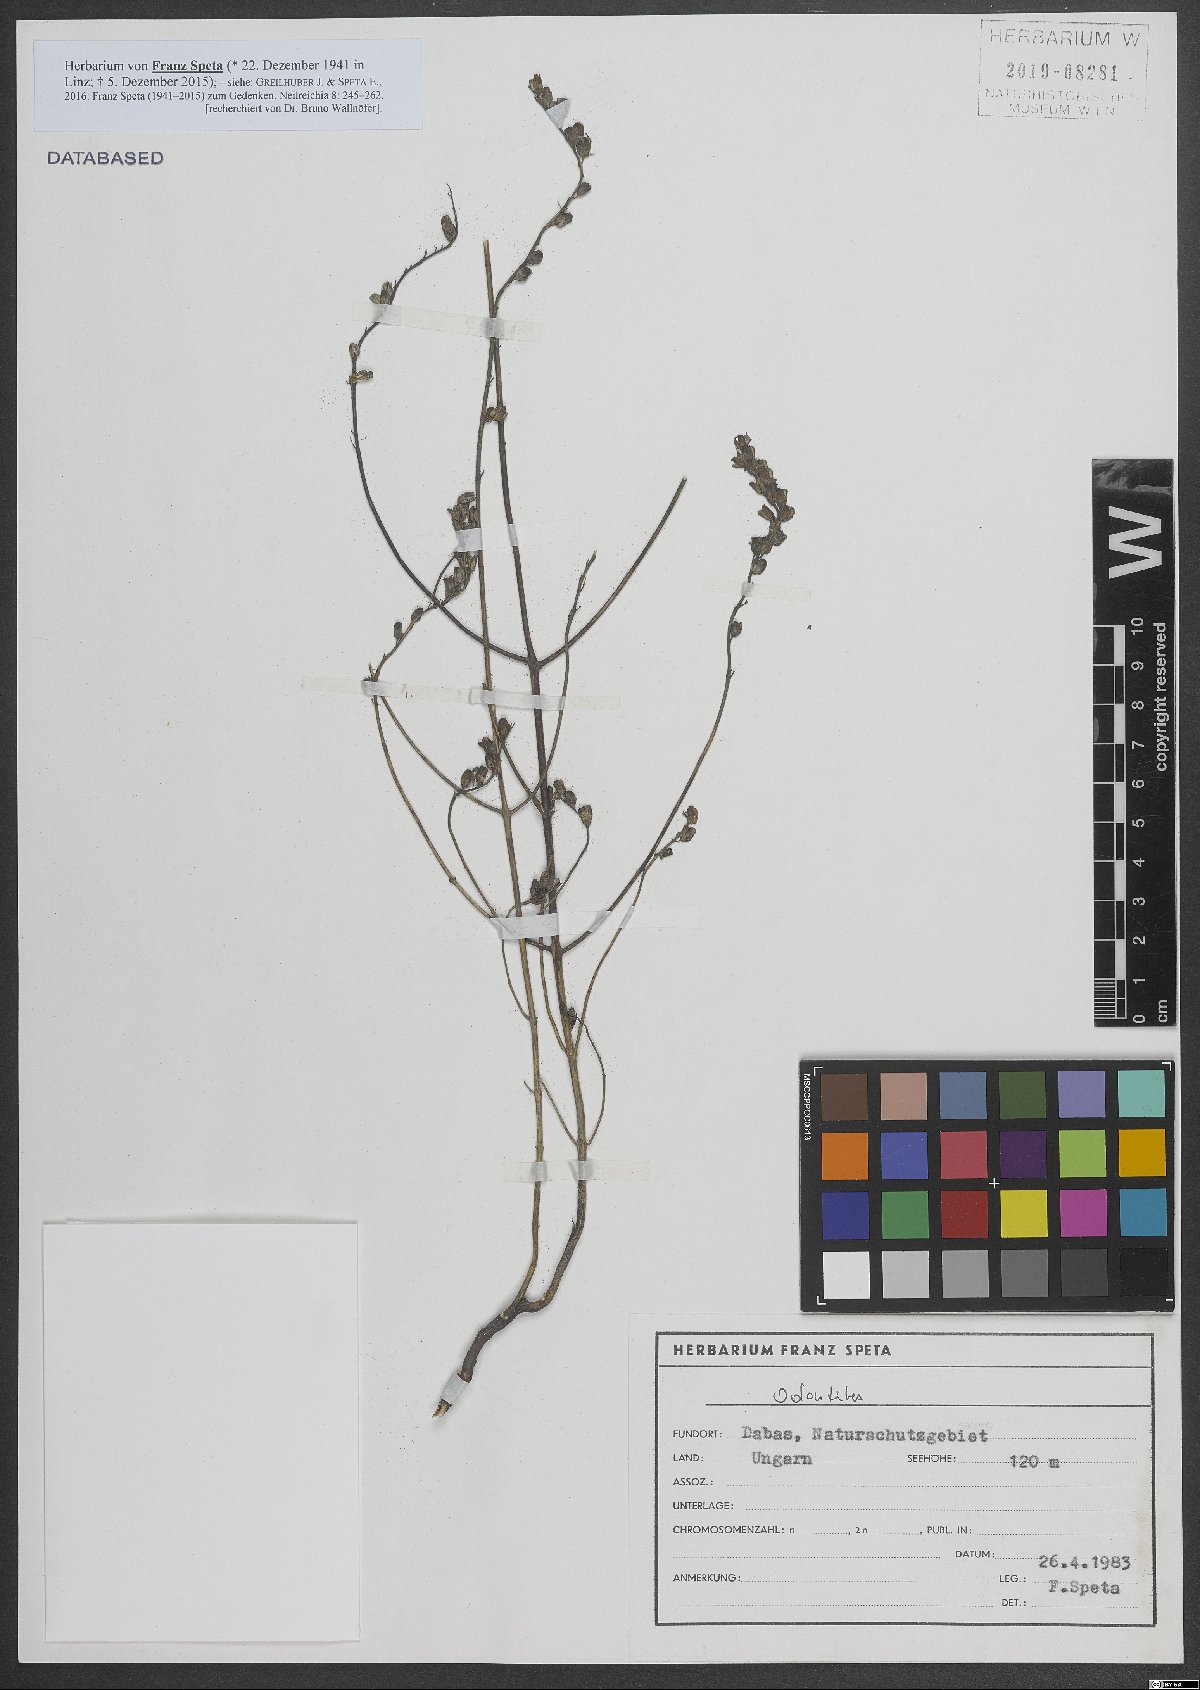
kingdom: Plantae
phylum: Tracheophyta
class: Magnoliopsida
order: Lamiales
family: Orobanchaceae
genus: Odontites
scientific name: Odontites
